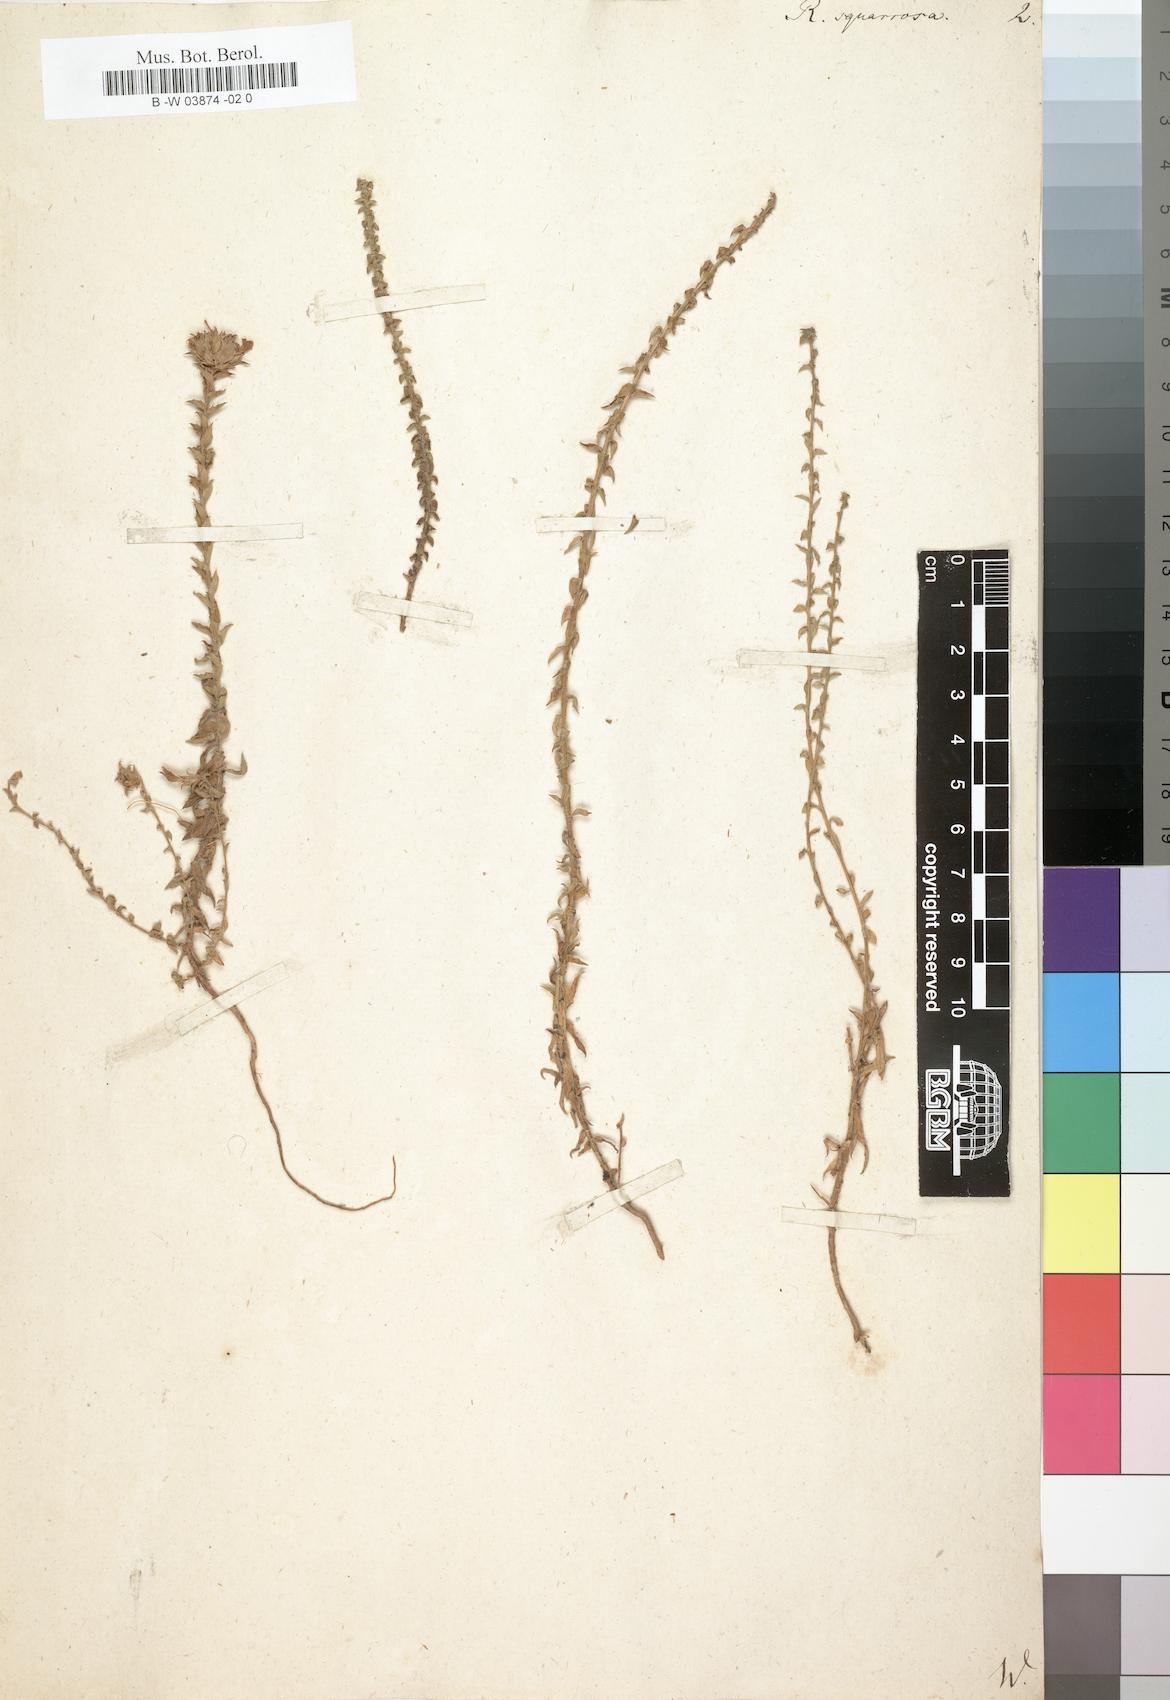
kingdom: Plantae
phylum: Tracheophyta
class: Magnoliopsida
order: Asterales
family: Campanulaceae
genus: Roella
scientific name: Roella squarrosa
